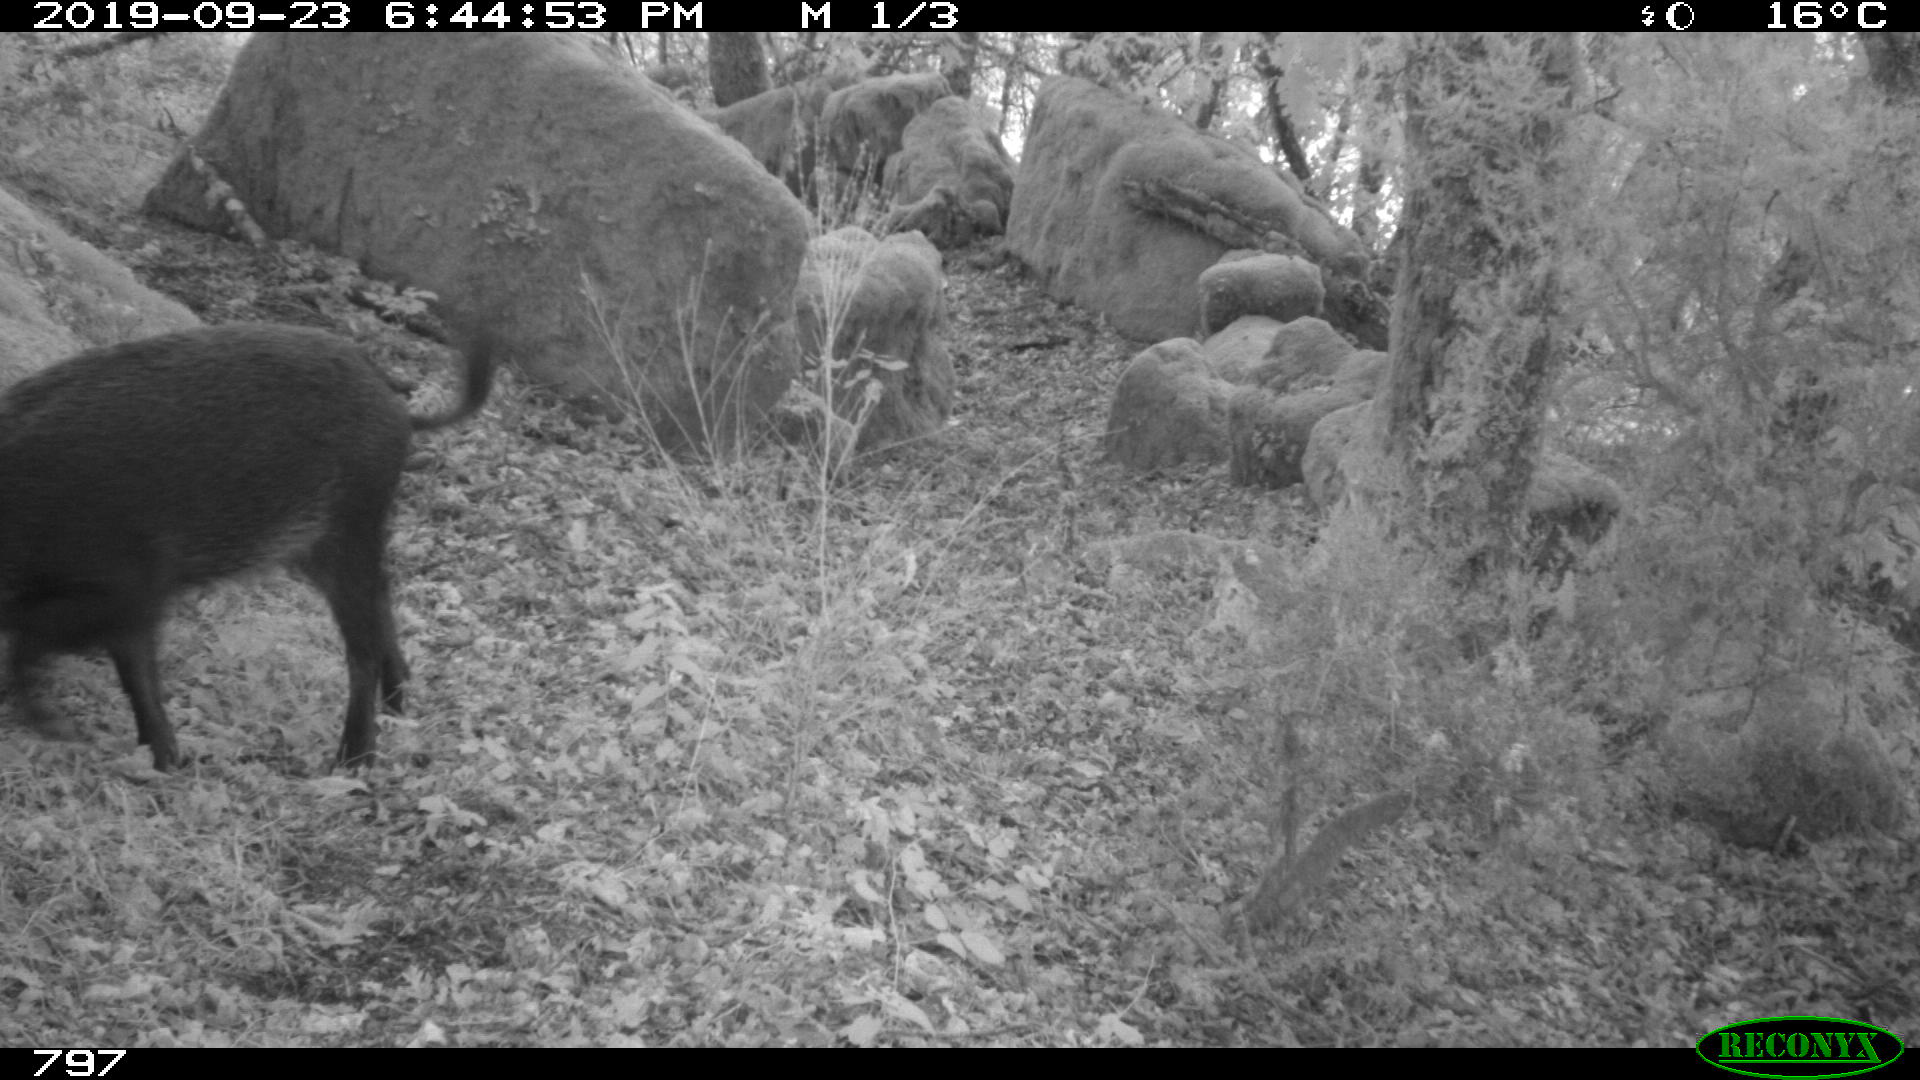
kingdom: Animalia
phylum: Chordata
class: Mammalia
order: Artiodactyla
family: Suidae
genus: Sus
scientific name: Sus scrofa
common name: Wild boar
